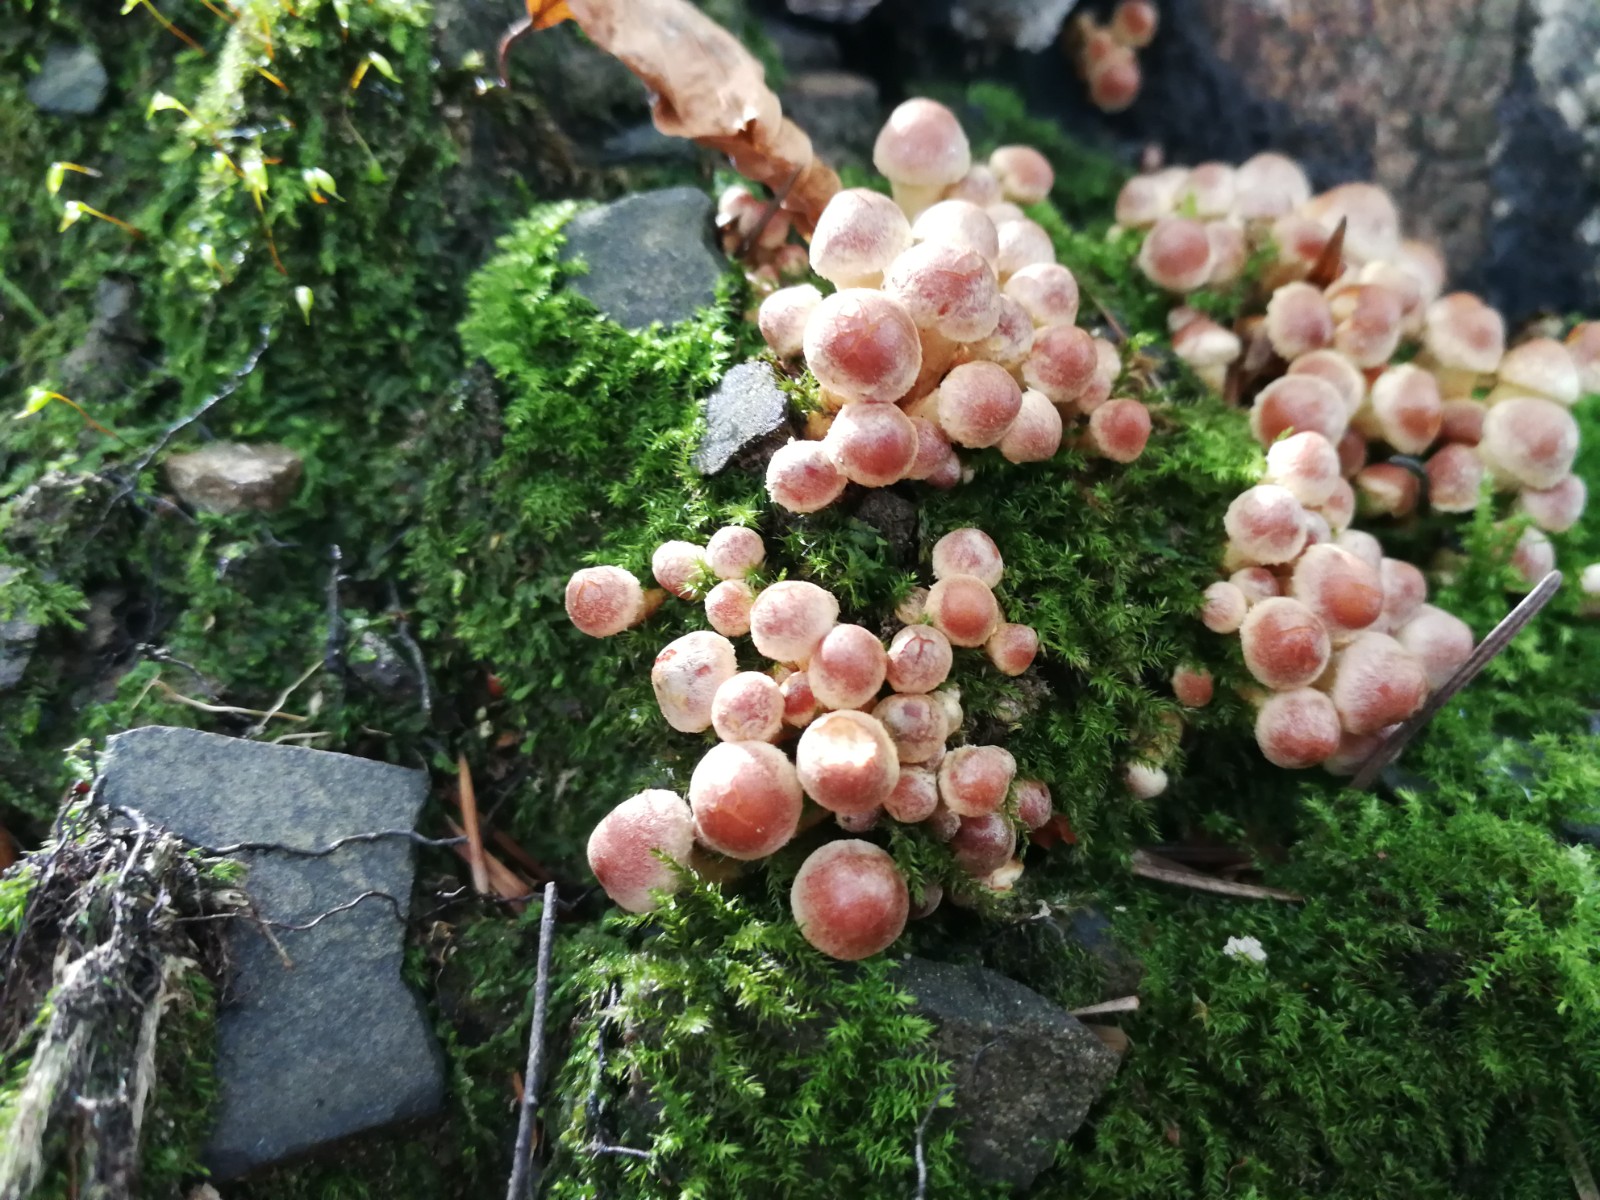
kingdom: Fungi
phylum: Basidiomycota
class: Agaricomycetes
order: Agaricales
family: Strophariaceae
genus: Hypholoma
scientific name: Hypholoma lateritium
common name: teglrød svovlhat
